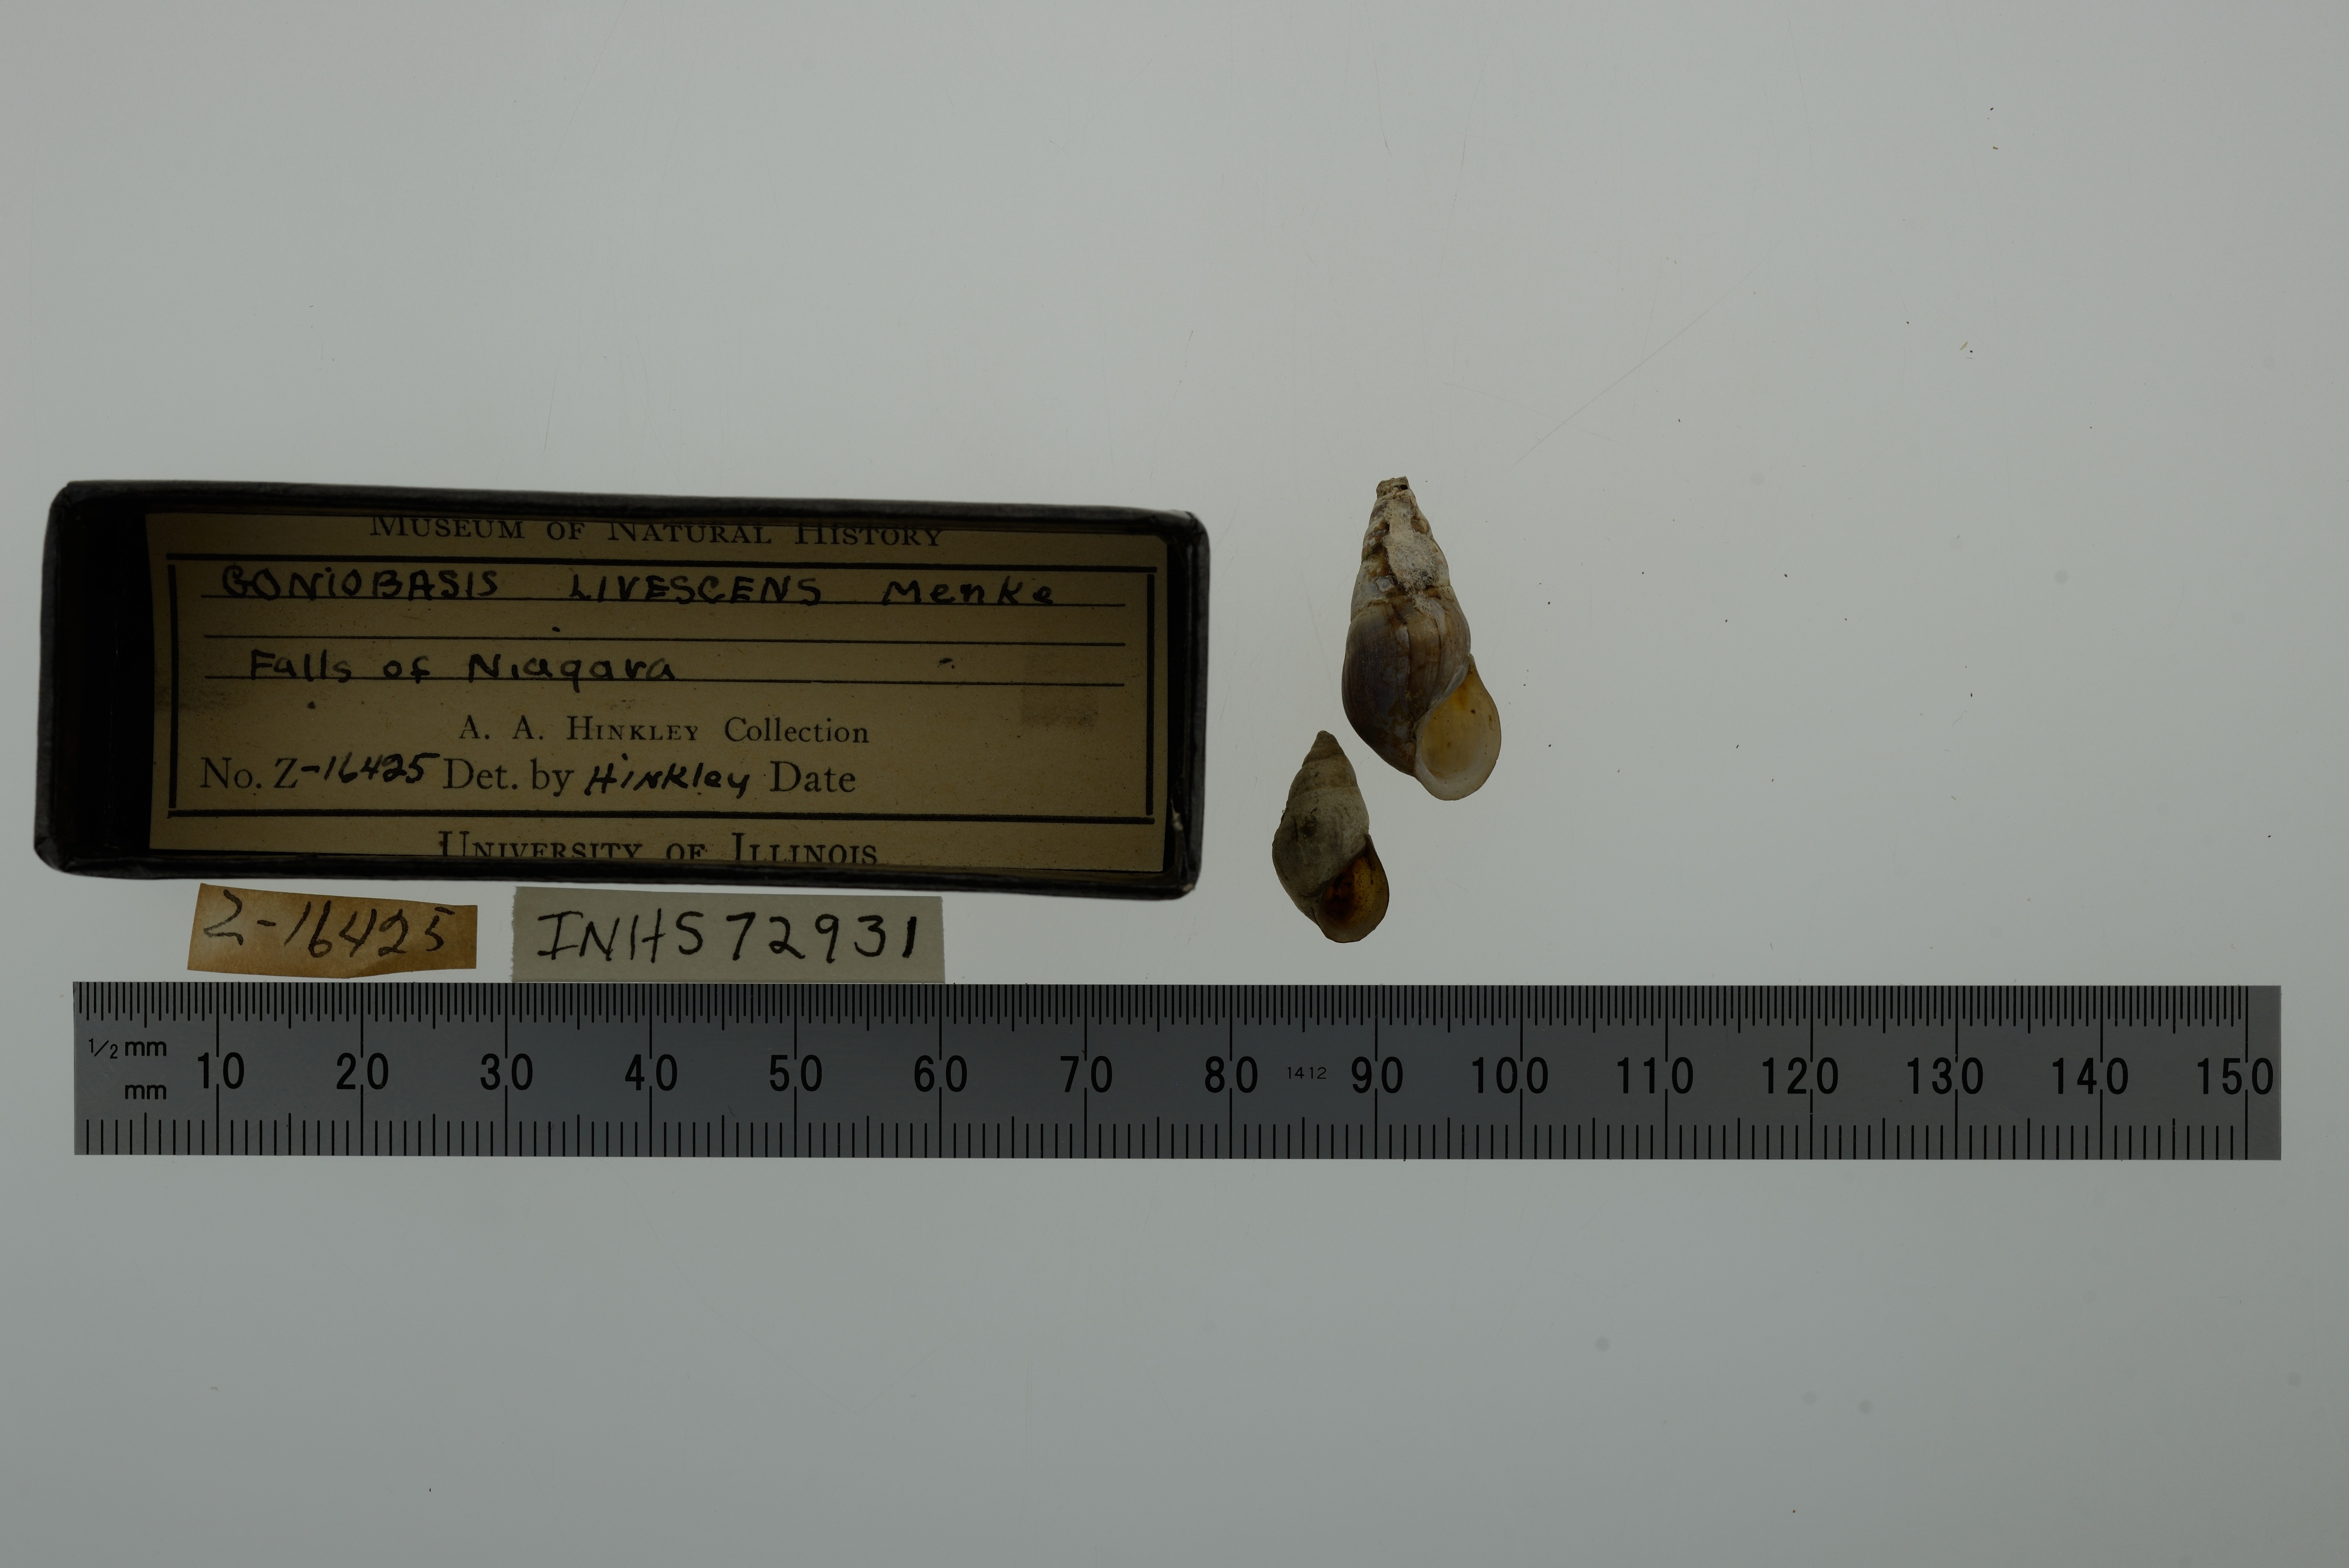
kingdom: Animalia
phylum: Mollusca
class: Gastropoda
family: Pleuroceridae
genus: Elimia
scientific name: Elimia livescens
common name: Liver elimia
